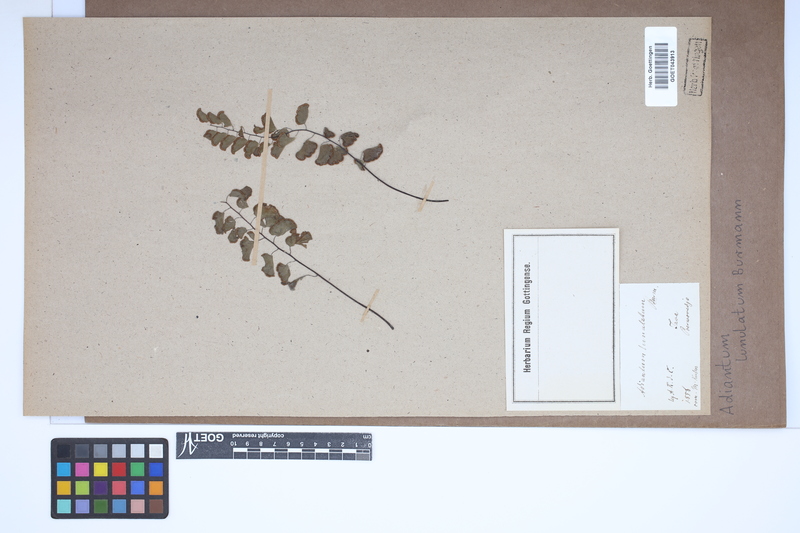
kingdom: Plantae
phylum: Tracheophyta
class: Polypodiopsida
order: Polypodiales
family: Pteridaceae
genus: Adiantum
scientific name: Adiantum philippense
